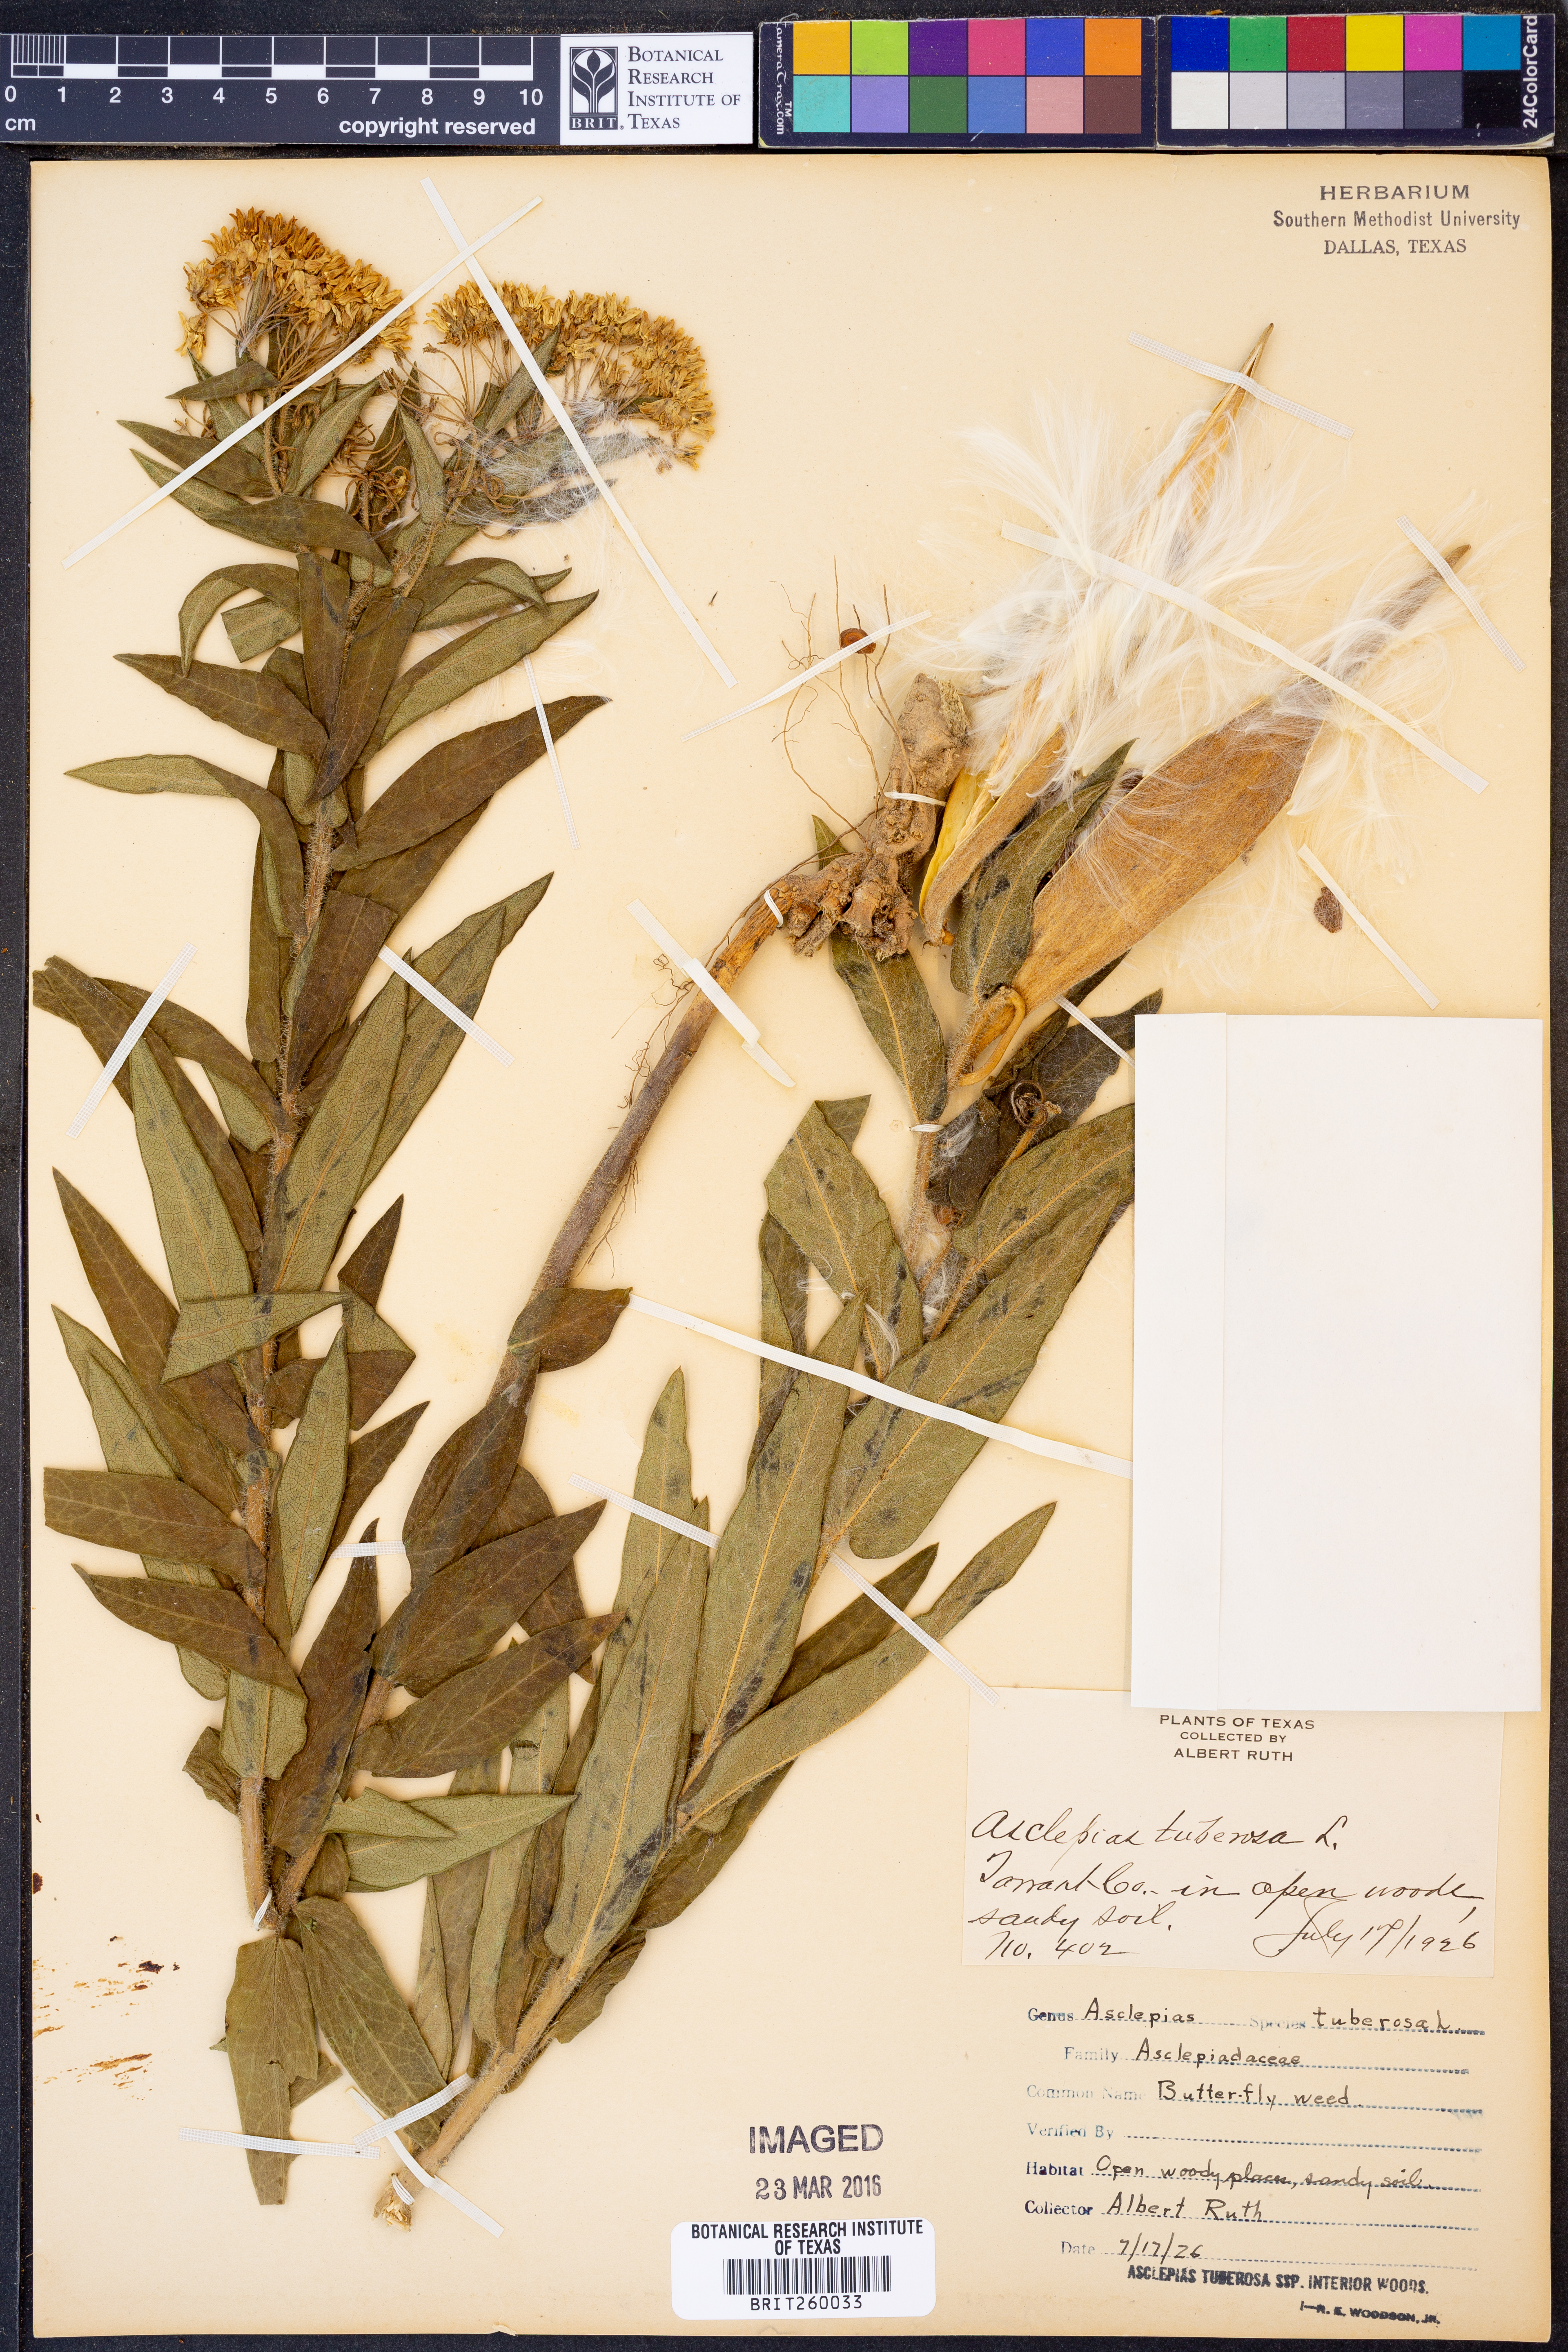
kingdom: Plantae
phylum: Tracheophyta
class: Magnoliopsida
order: Gentianales
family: Apocynaceae
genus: Asclepias
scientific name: Asclepias tuberosa
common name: Butterfly milkweed
